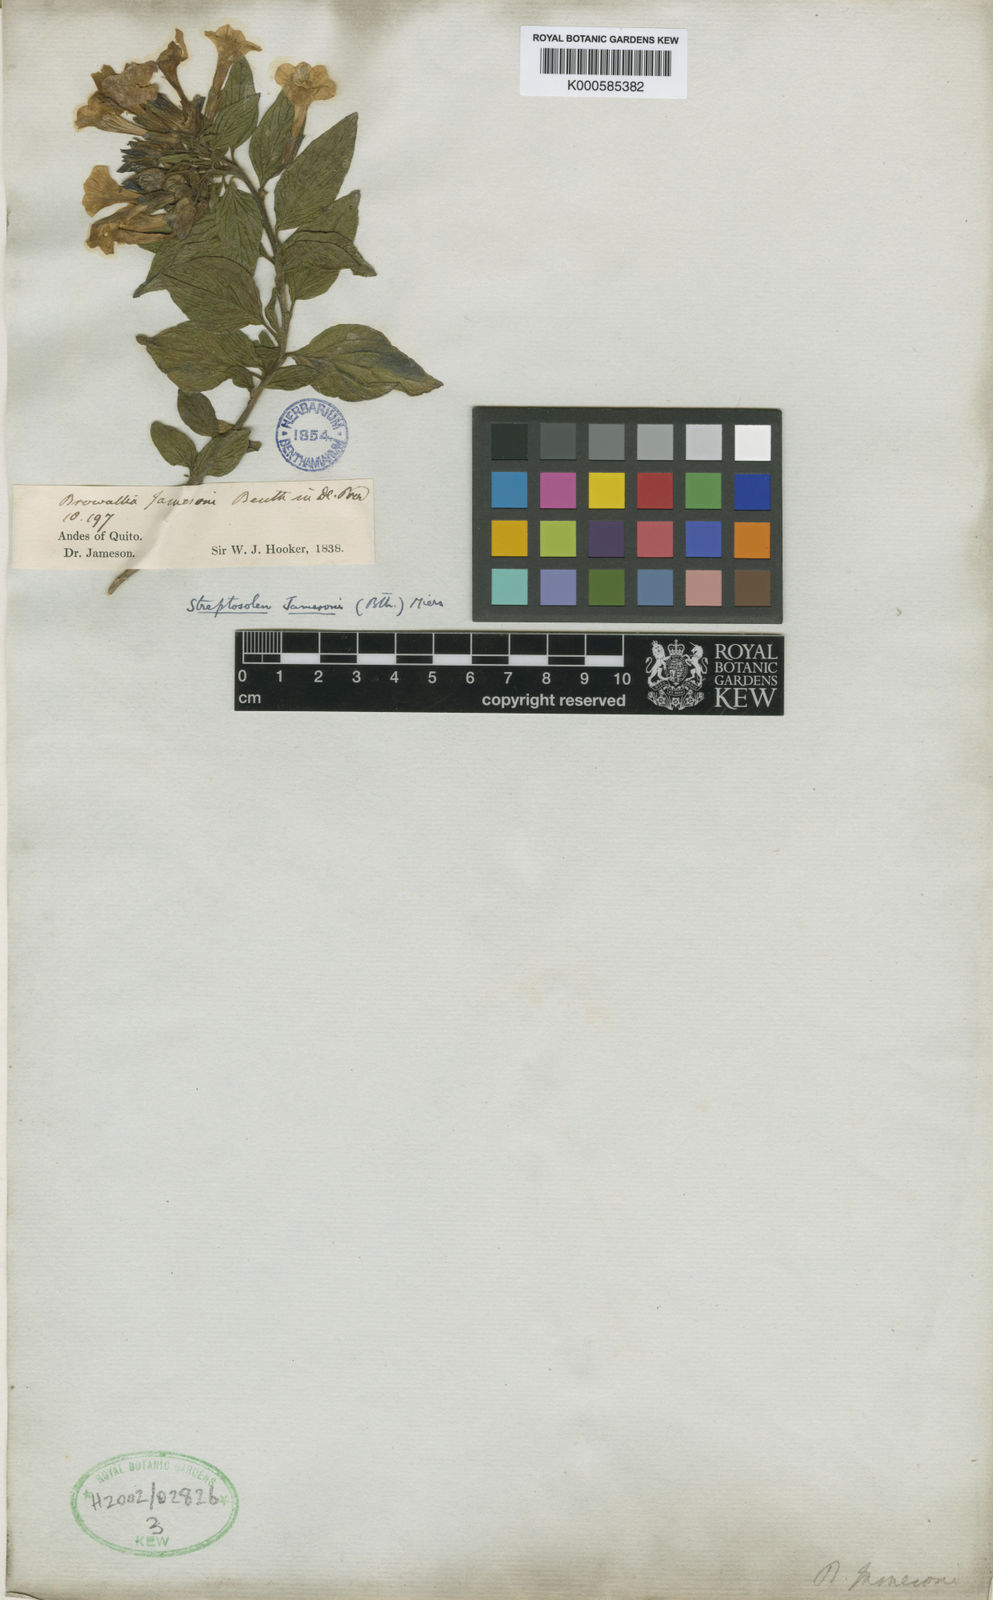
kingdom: Plantae
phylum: Tracheophyta
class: Magnoliopsida
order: Solanales
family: Solanaceae
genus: Streptosolen
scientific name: Streptosolen jamesonii
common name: Marmalade bush
